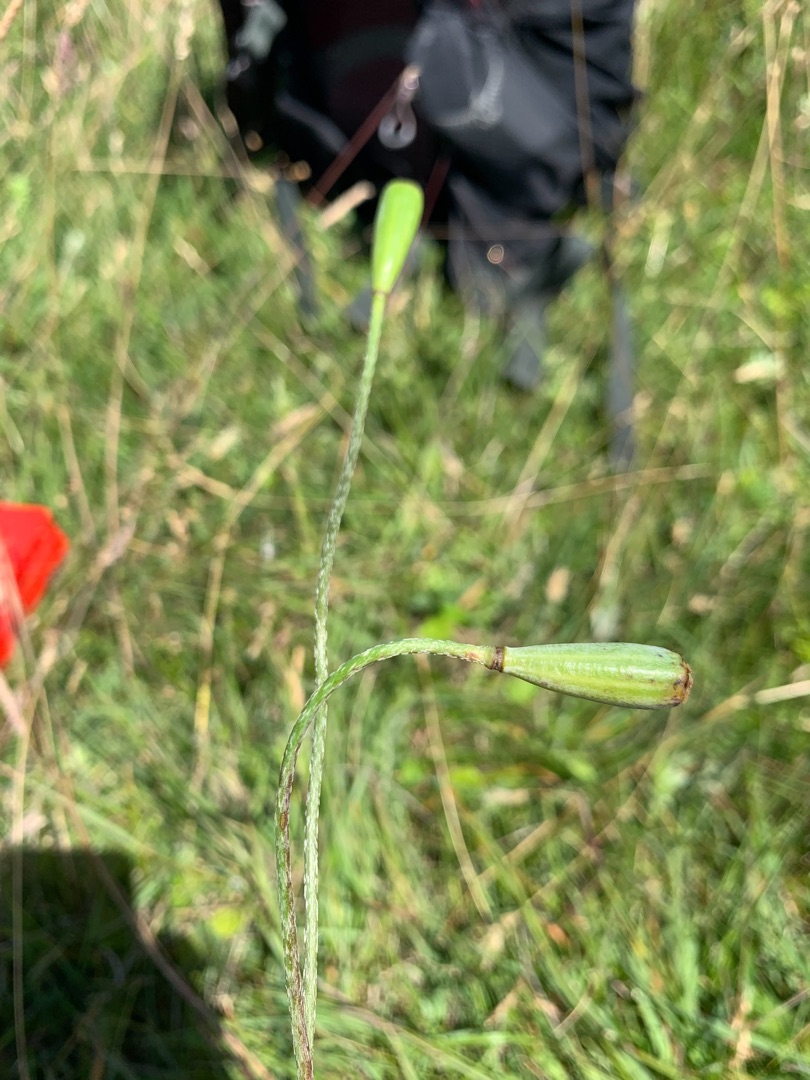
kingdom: Plantae
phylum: Tracheophyta
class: Magnoliopsida
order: Ranunculales
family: Papaveraceae
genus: Papaver
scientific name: Papaver dubium
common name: Gærde-valmue
